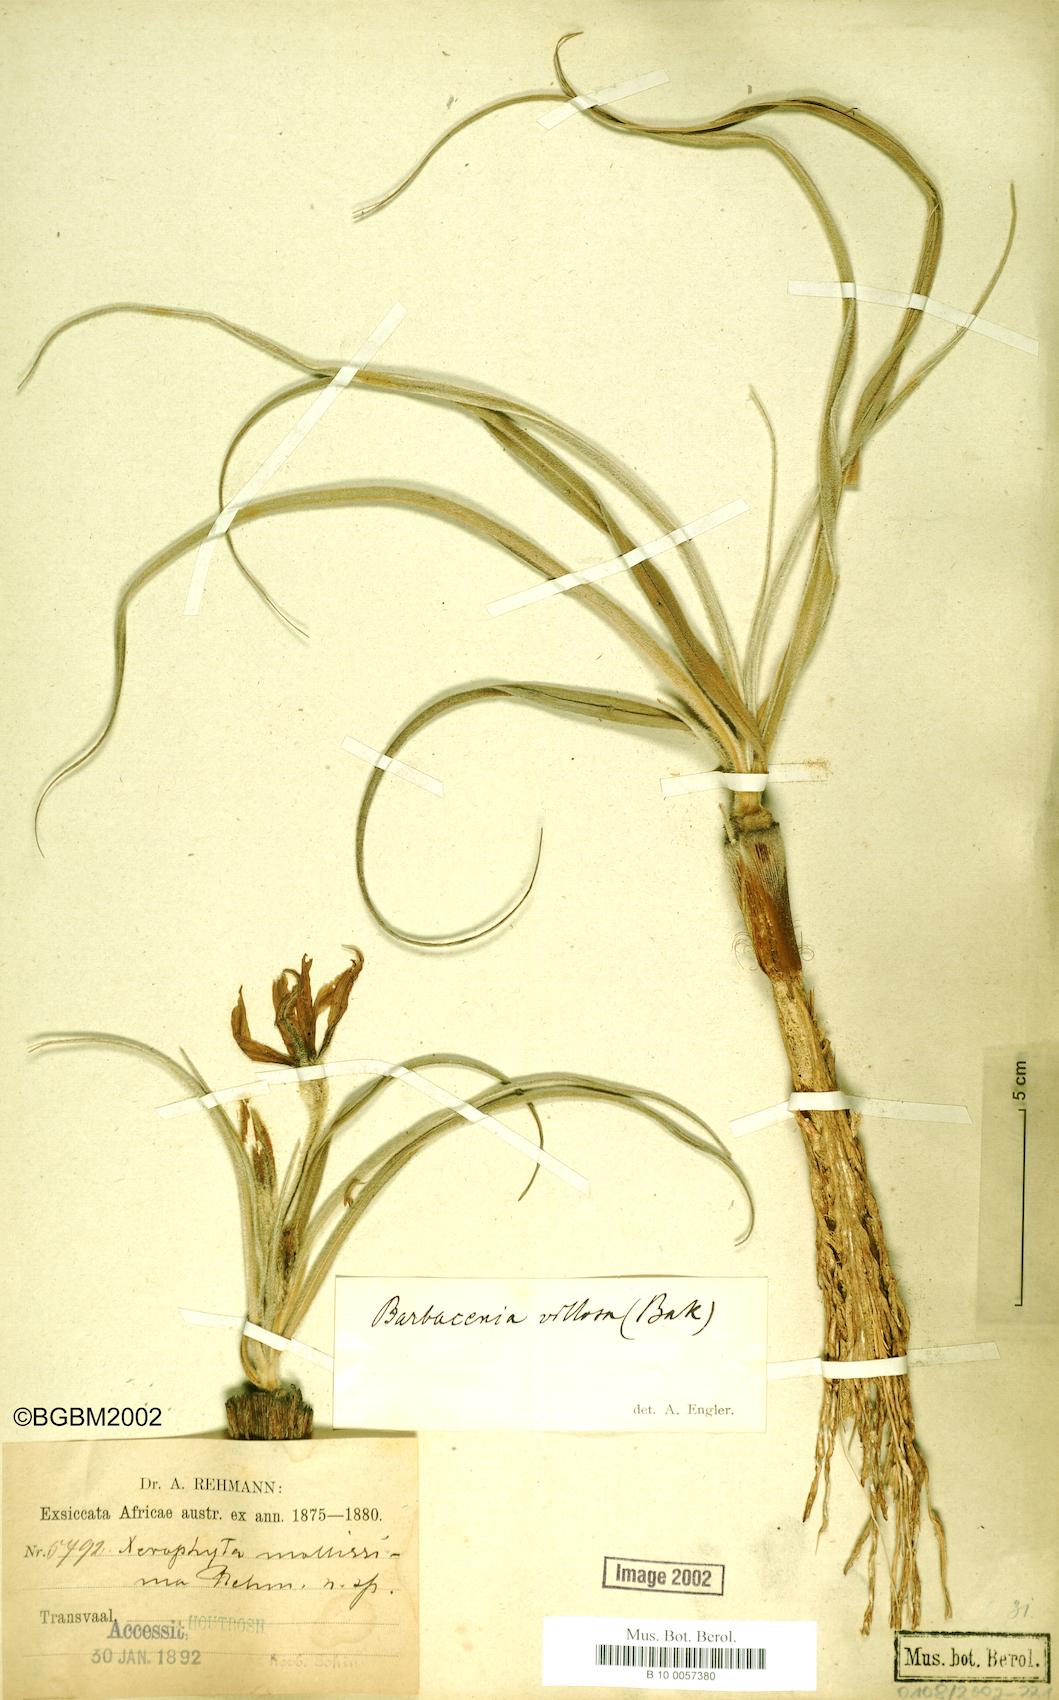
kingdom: Plantae
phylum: Tracheophyta
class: Liliopsida
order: Pandanales
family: Velloziaceae
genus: Xerophyta
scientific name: Xerophyta villosa
